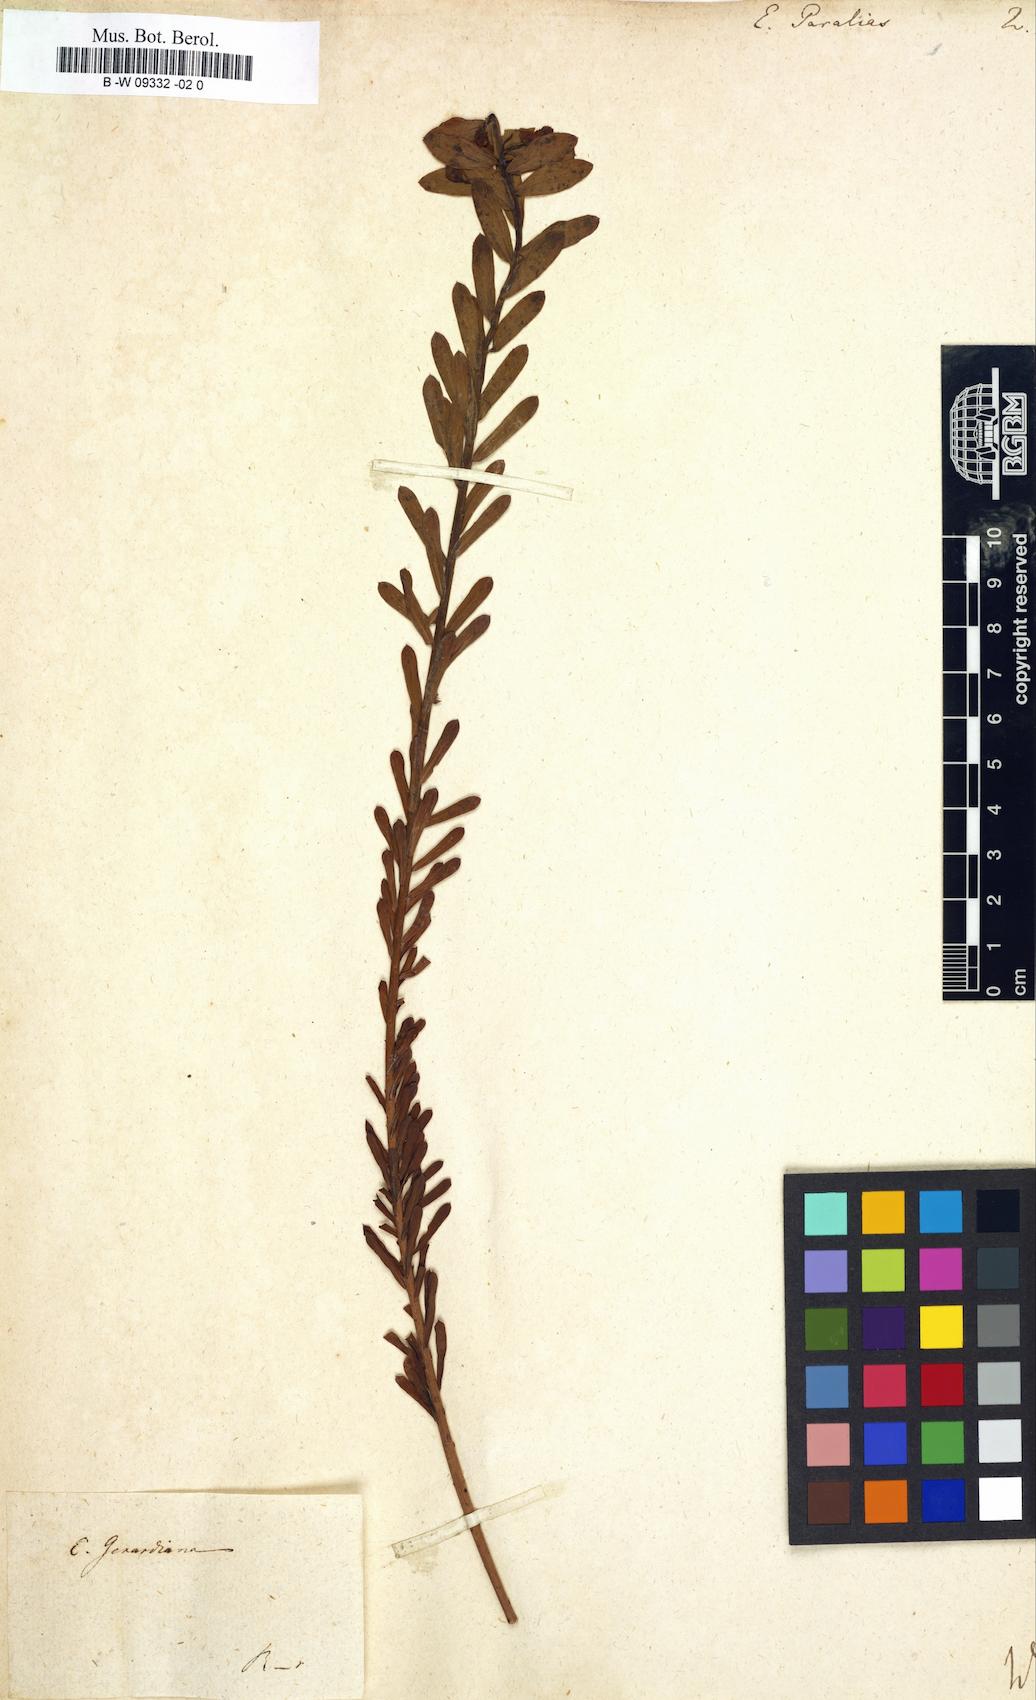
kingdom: Plantae
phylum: Tracheophyta
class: Magnoliopsida
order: Malpighiales
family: Euphorbiaceae
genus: Euphorbia
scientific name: Euphorbia paralias
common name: Sea spurge
